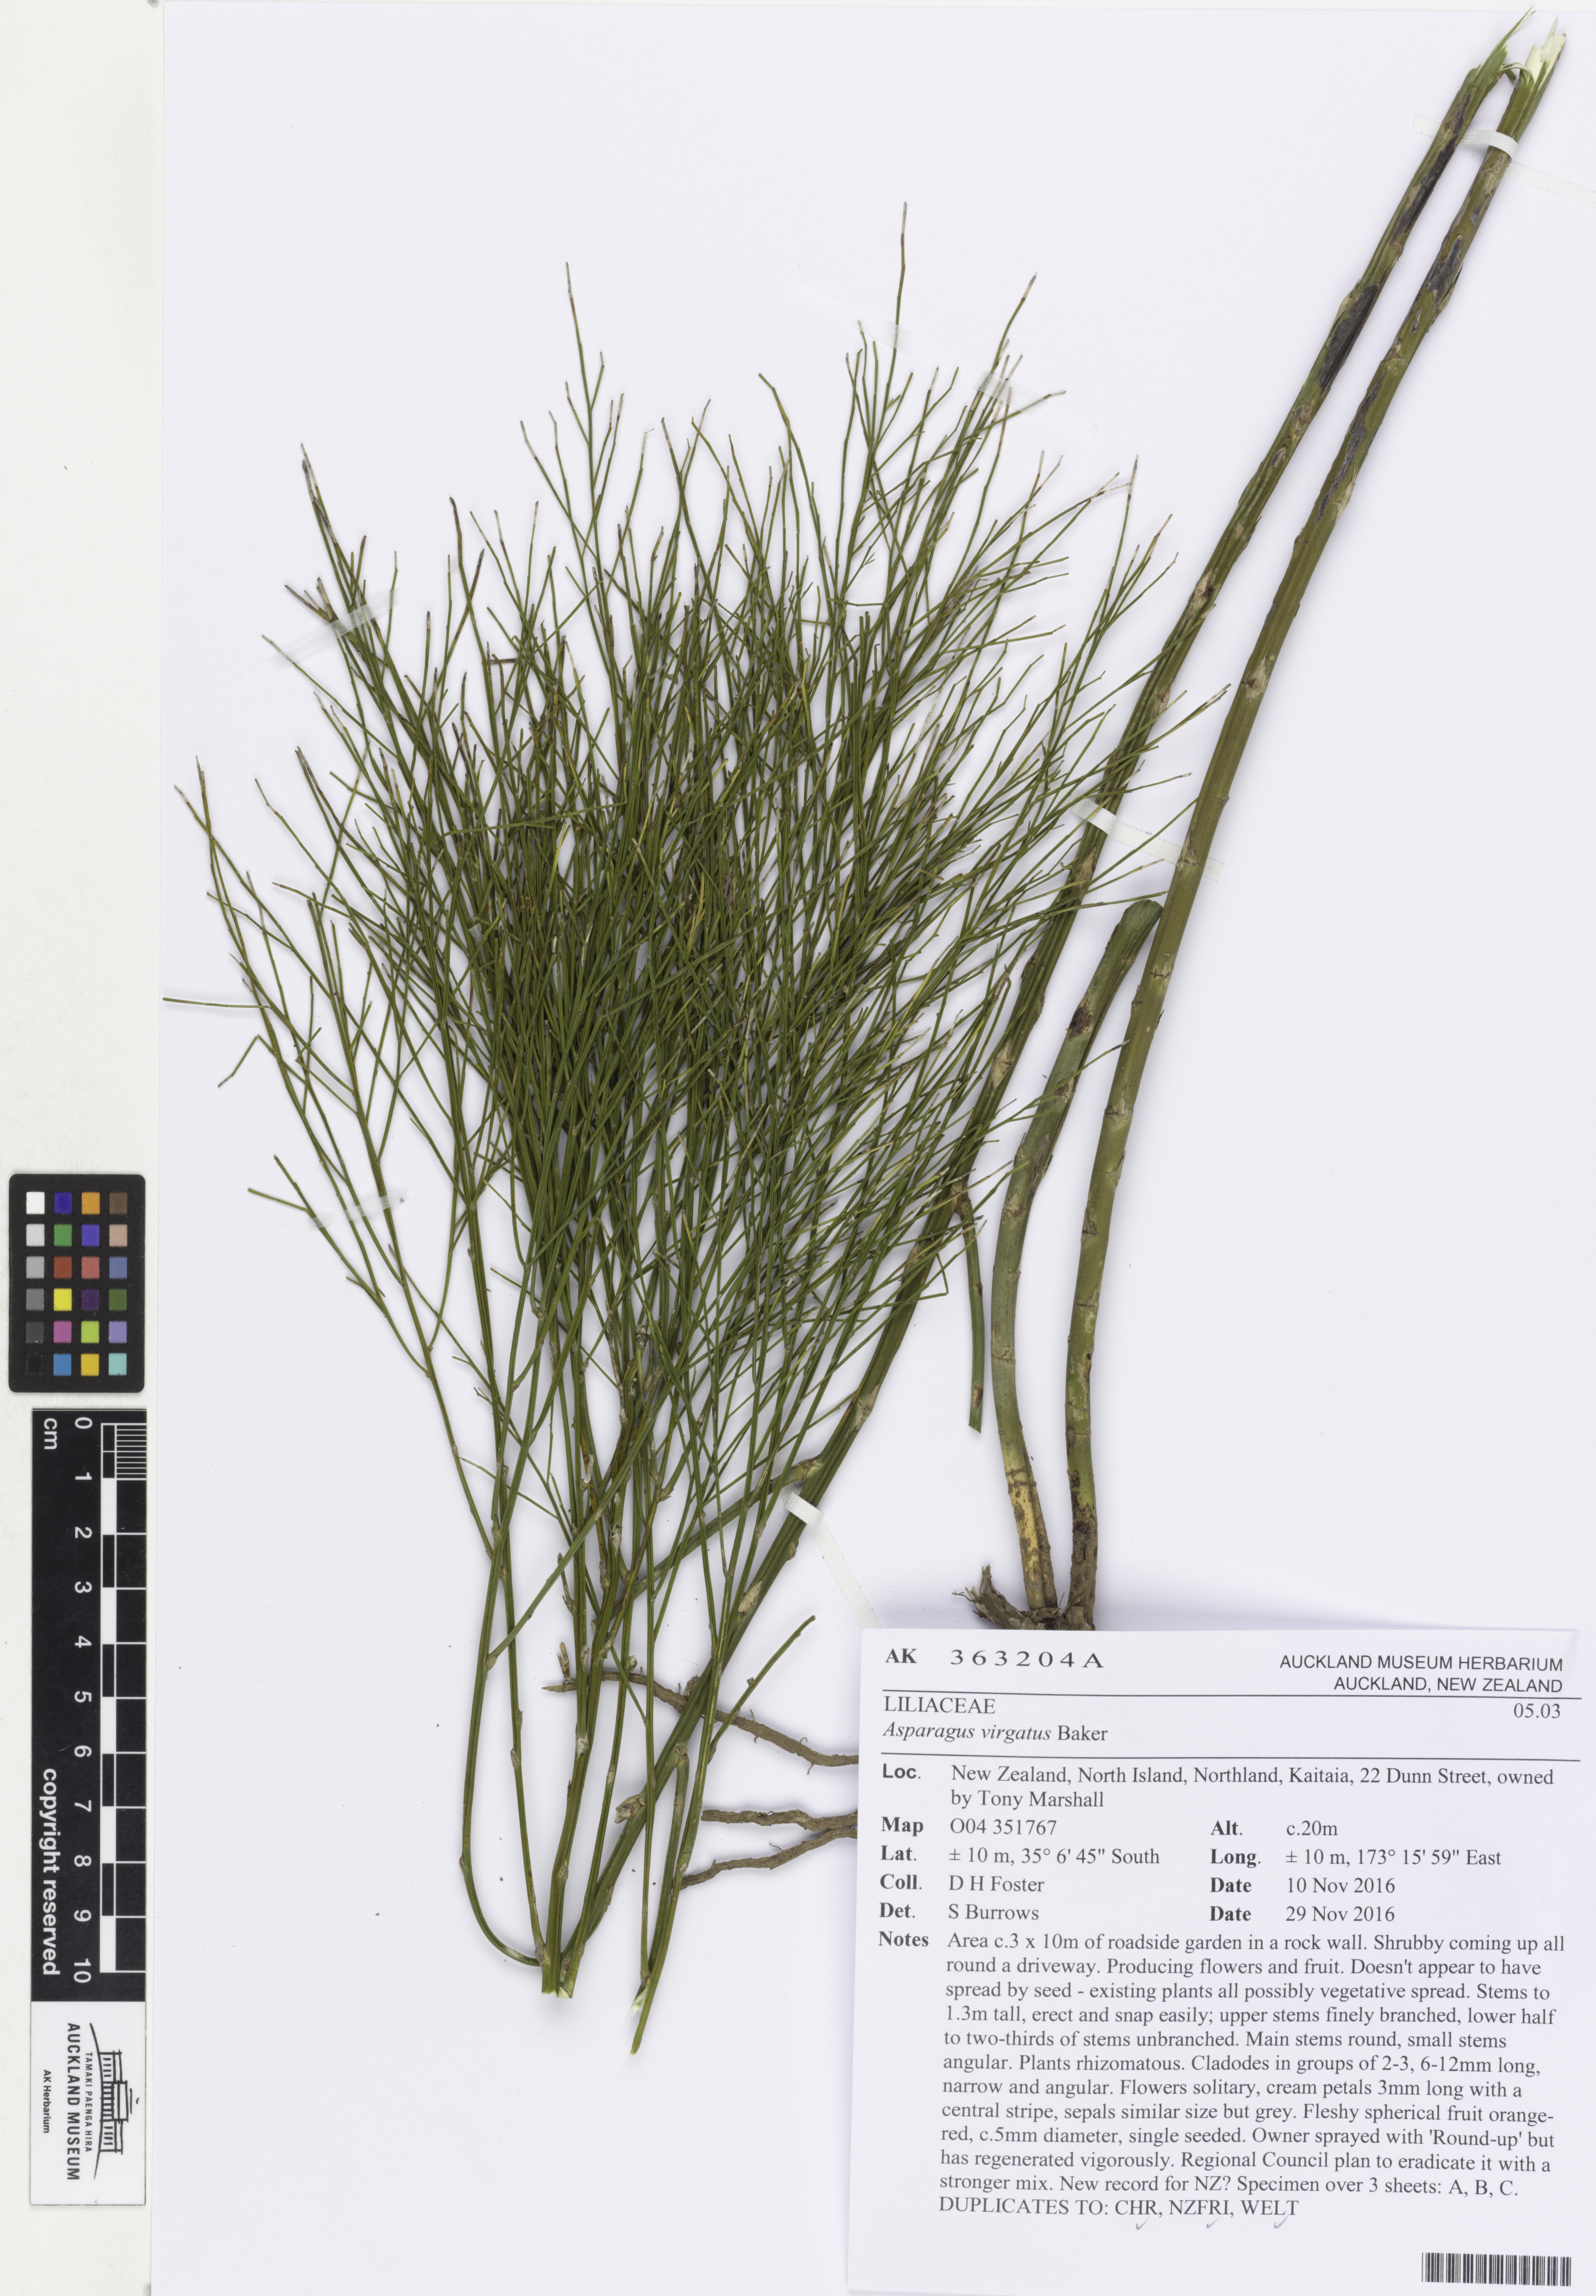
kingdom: Plantae
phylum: Tracheophyta
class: Liliopsida
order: Asparagales
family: Asparagaceae
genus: Asparagus
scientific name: Asparagus virgatus
